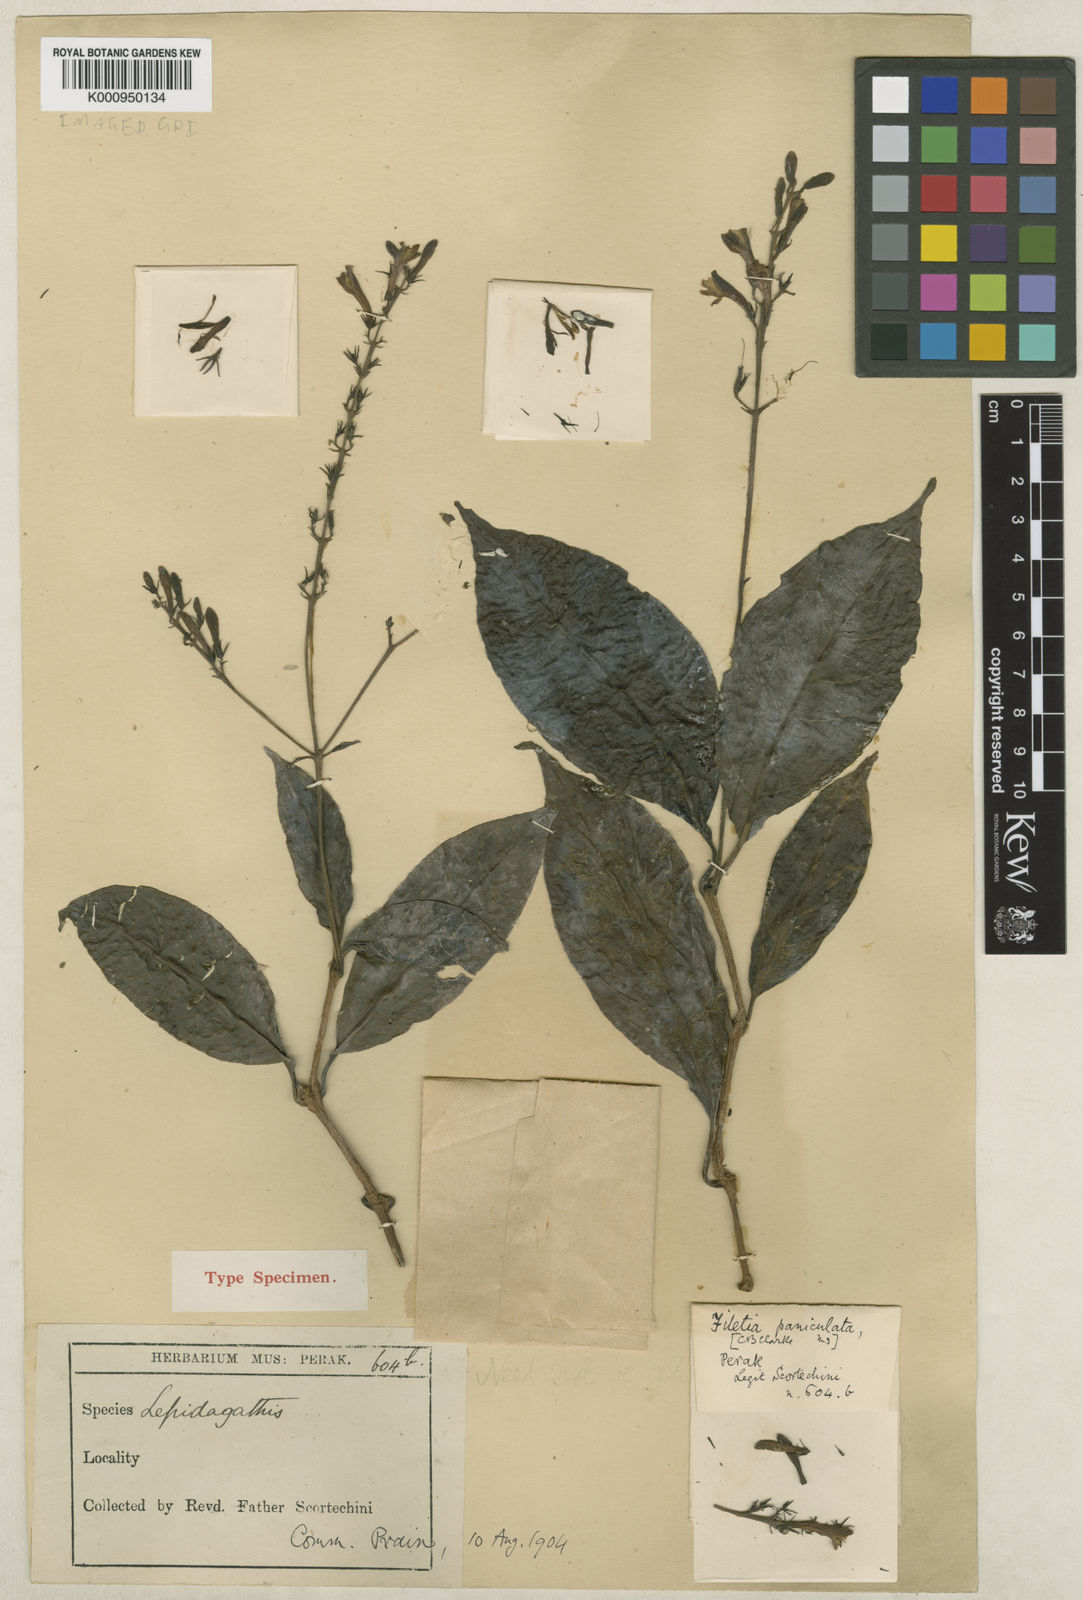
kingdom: Plantae
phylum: Tracheophyta
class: Magnoliopsida
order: Lamiales
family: Acanthaceae
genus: Filetia
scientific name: Filetia paniculata
